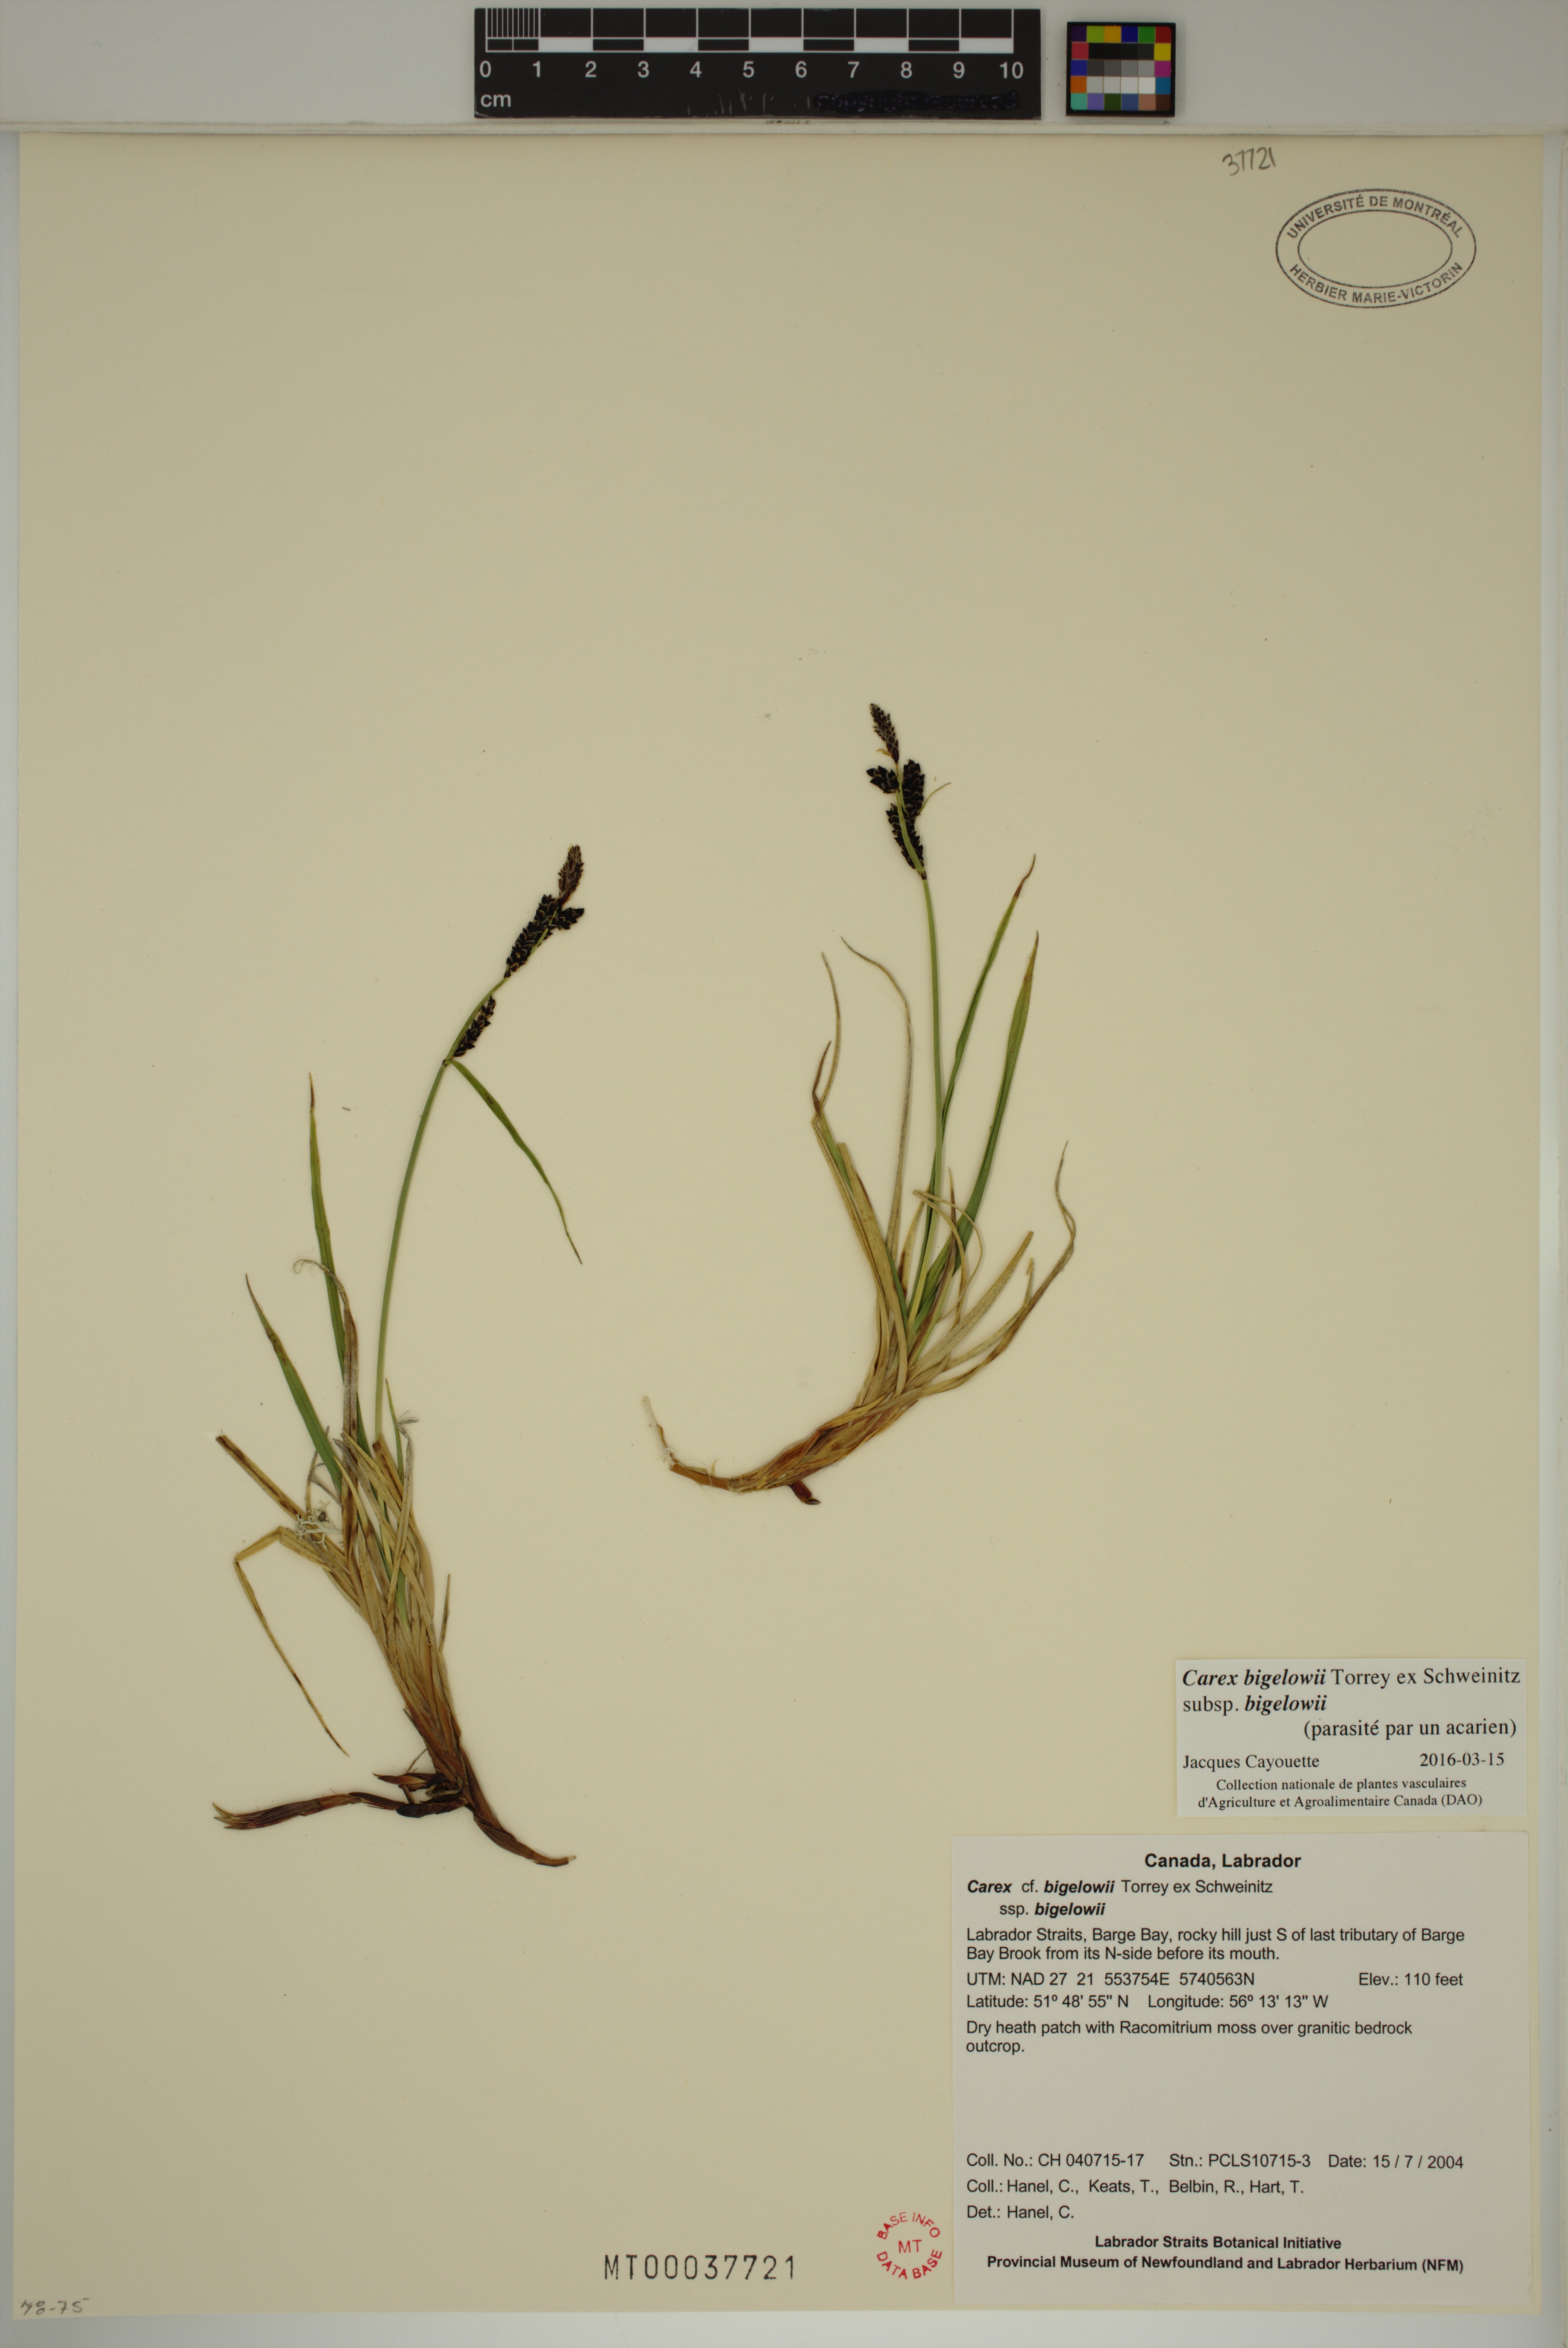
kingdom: Plantae
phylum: Tracheophyta
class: Liliopsida
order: Poales
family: Cyperaceae
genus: Carex
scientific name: Carex bigelowii
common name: Stiff sedge
